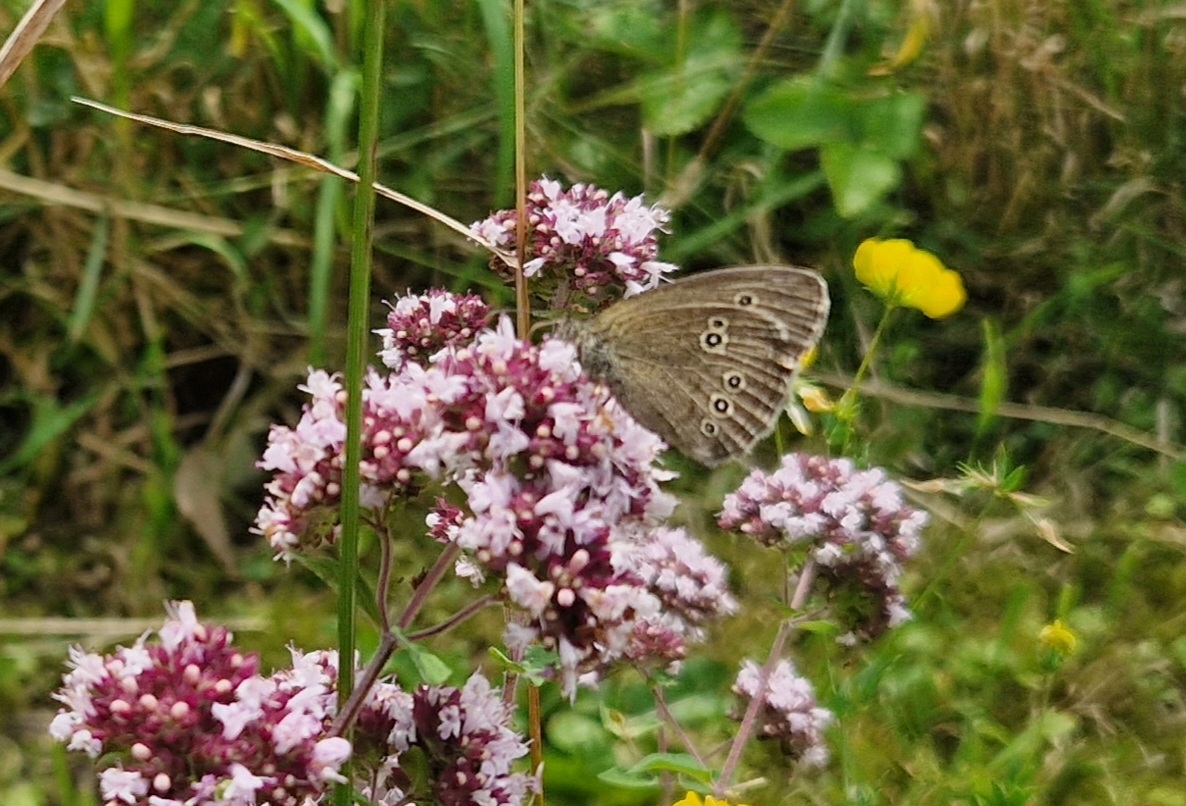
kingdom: Animalia
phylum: Arthropoda
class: Insecta
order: Lepidoptera
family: Nymphalidae
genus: Aphantopus
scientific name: Aphantopus hyperantus
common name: Engrandøje
